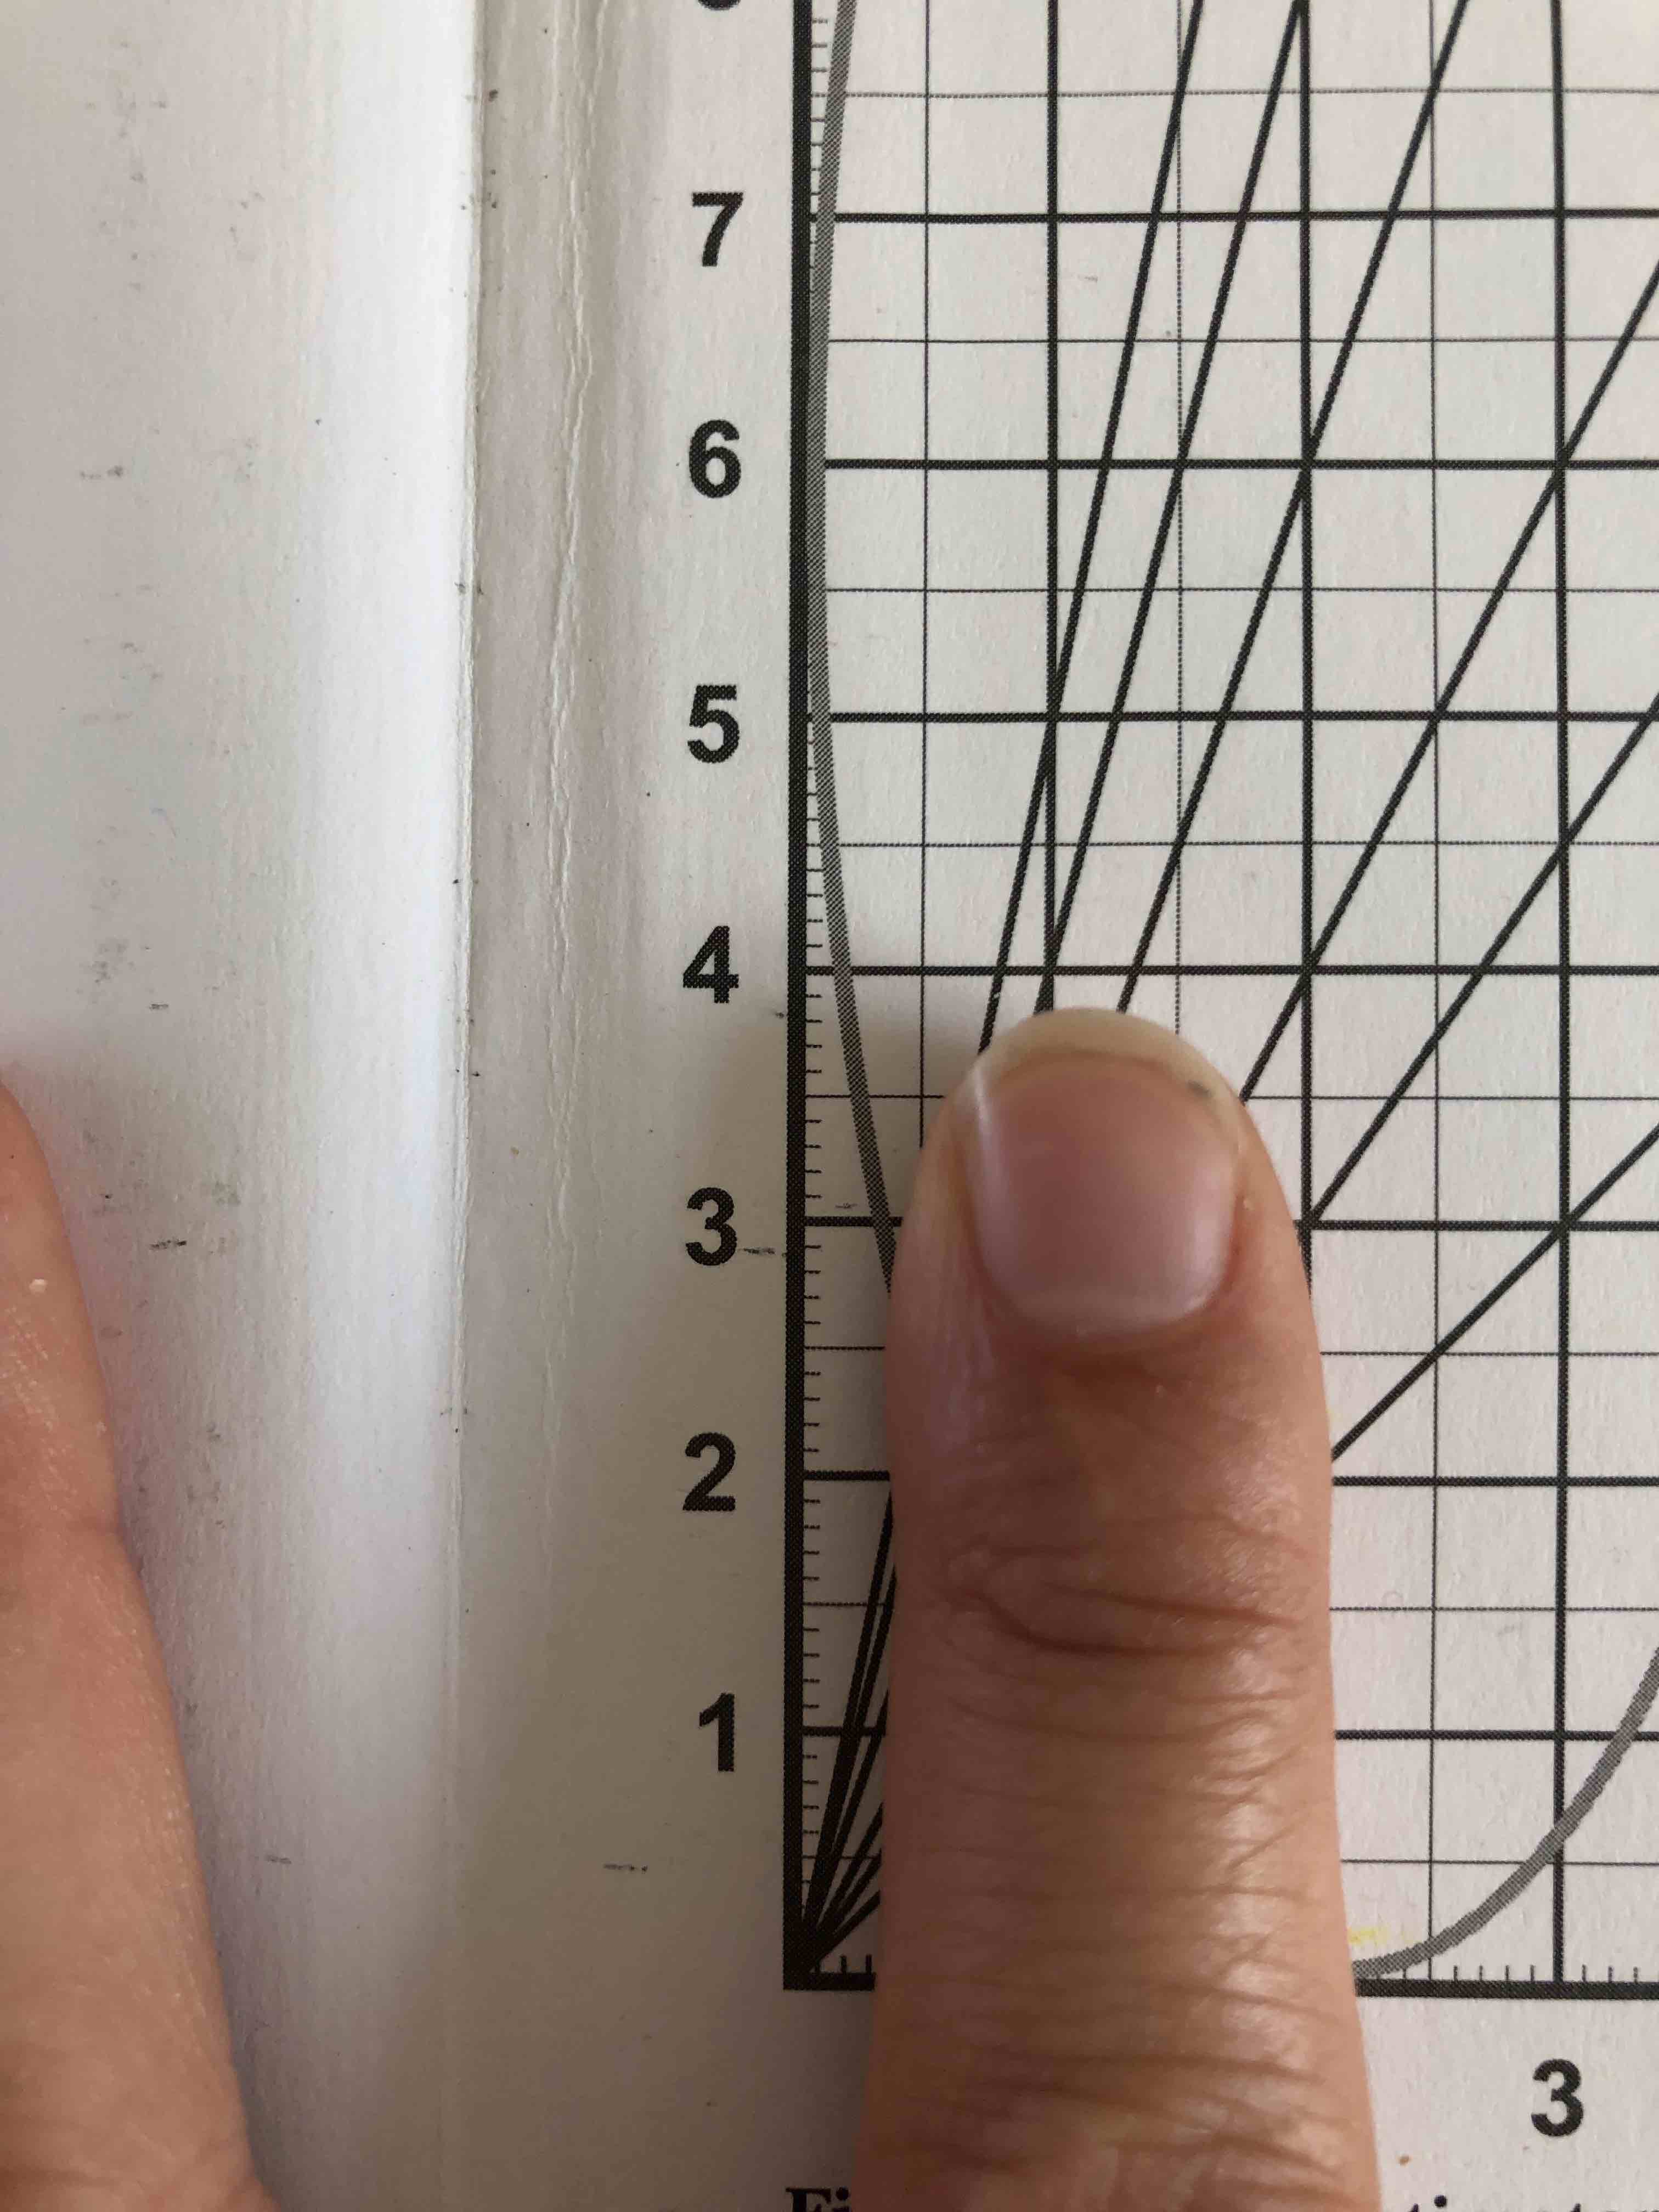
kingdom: Plantae
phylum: Tracheophyta
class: Magnoliopsida
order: Asterales
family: Asteraceae
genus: Cirsium
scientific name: Cirsium vulgare
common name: Horse-tidsel
